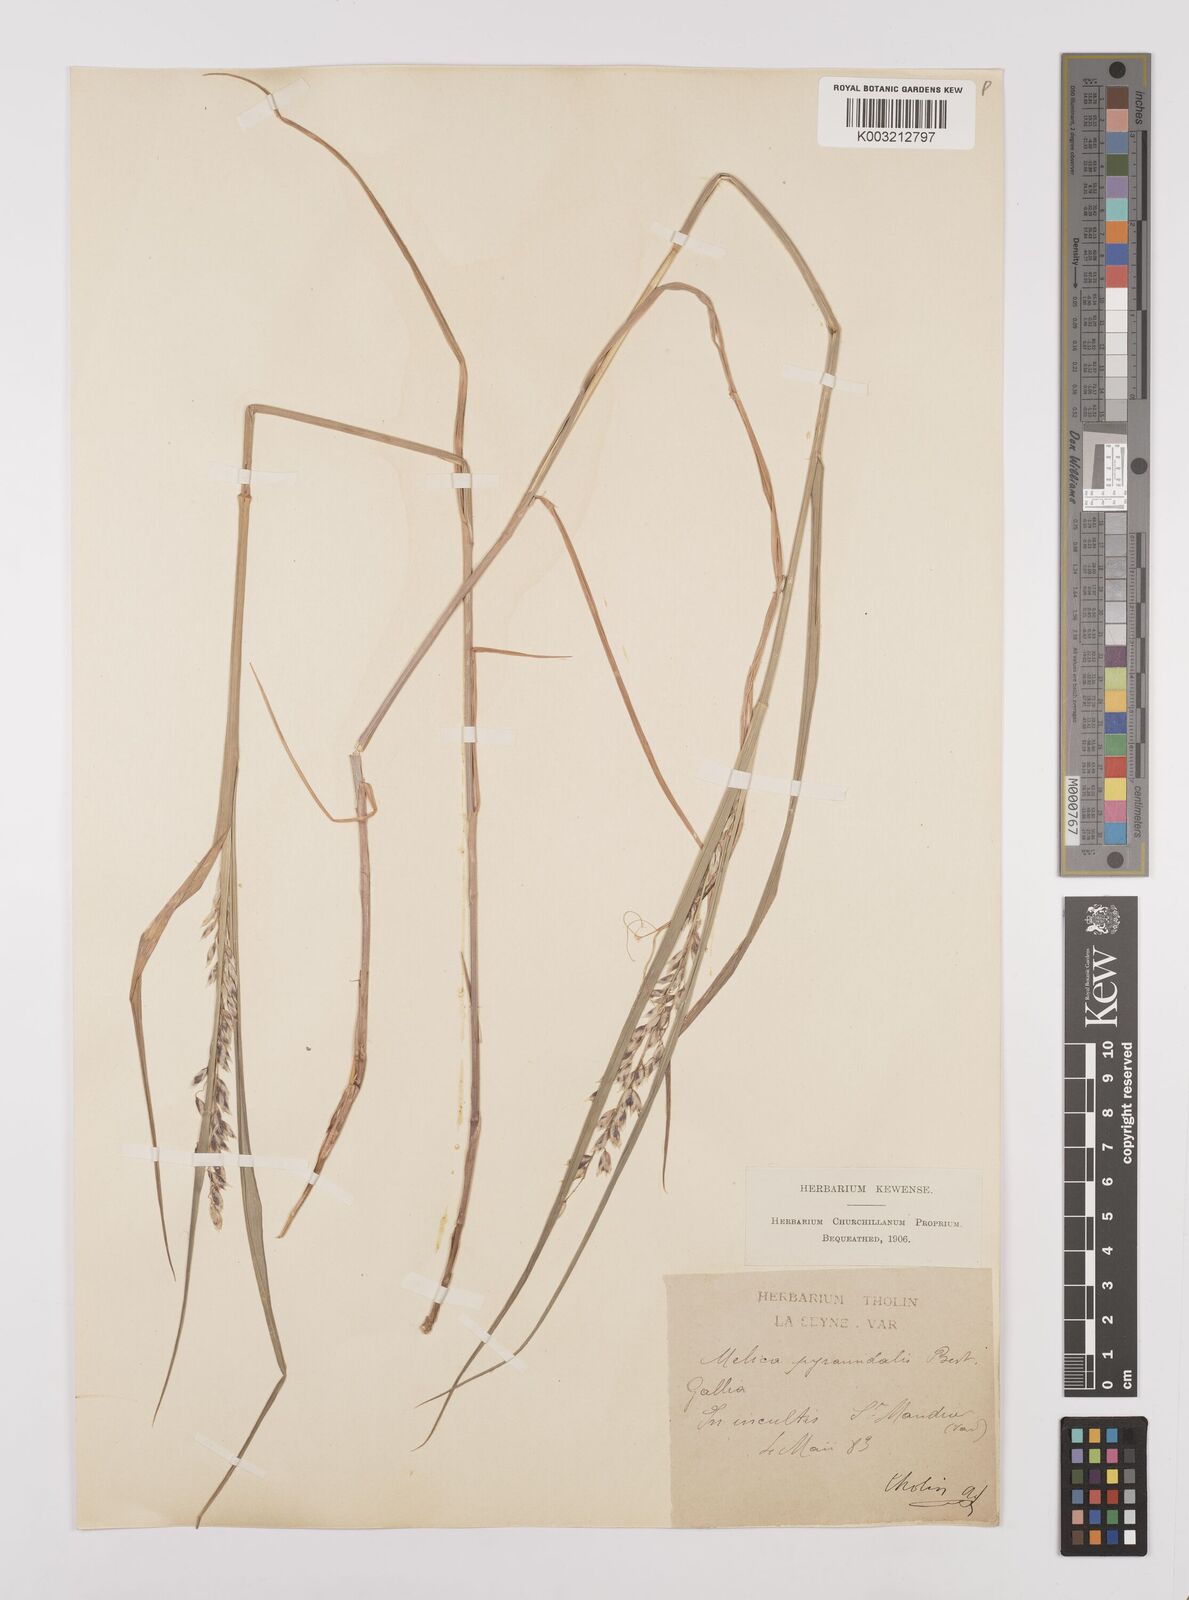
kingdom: Plantae
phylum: Tracheophyta
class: Liliopsida
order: Poales
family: Poaceae
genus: Melica
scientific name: Melica minuta
